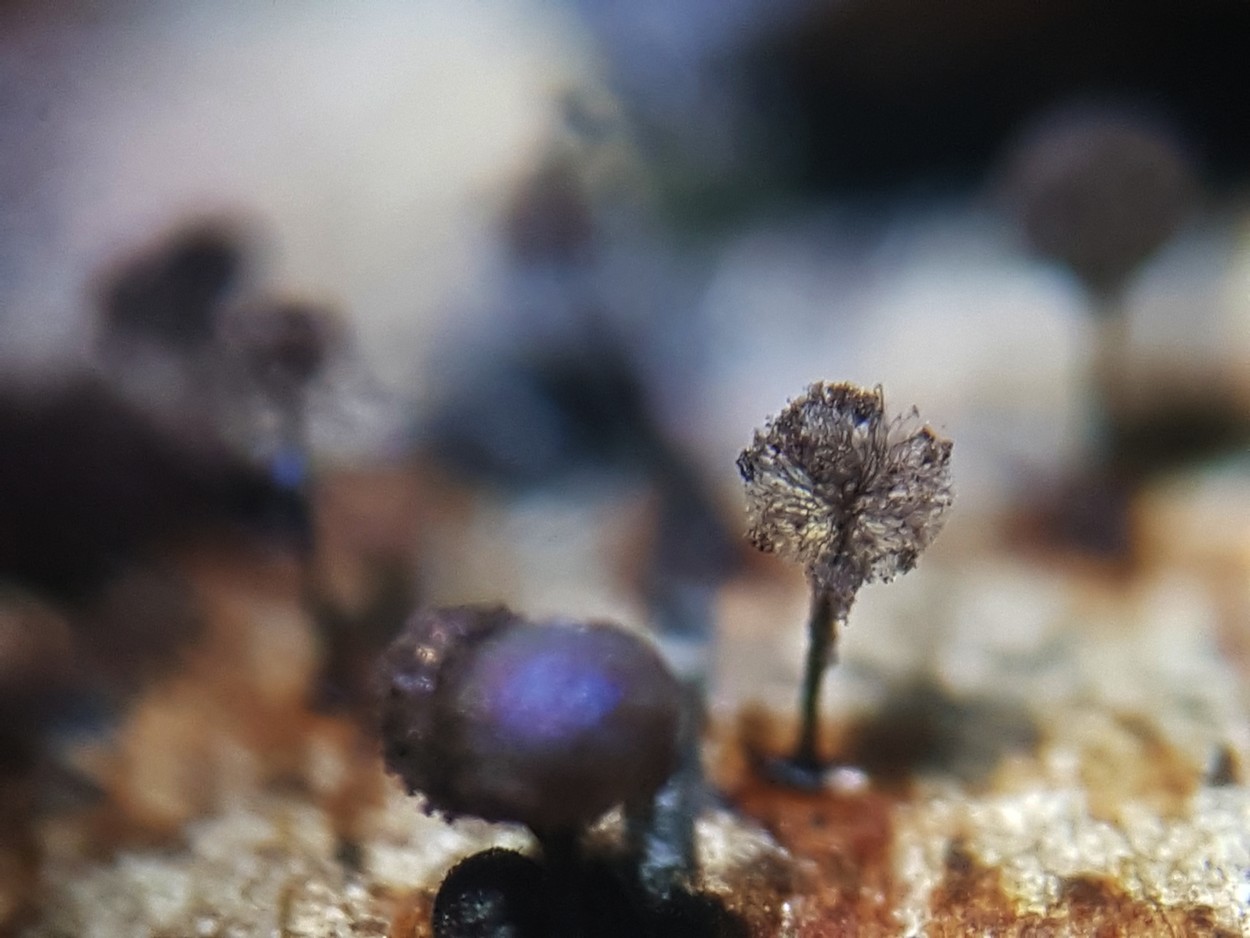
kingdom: Protozoa
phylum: Mycetozoa
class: Myxomycetes
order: Stemonitidales
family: Stemonitidaceae
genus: Lamproderma
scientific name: Lamproderma scintillans
